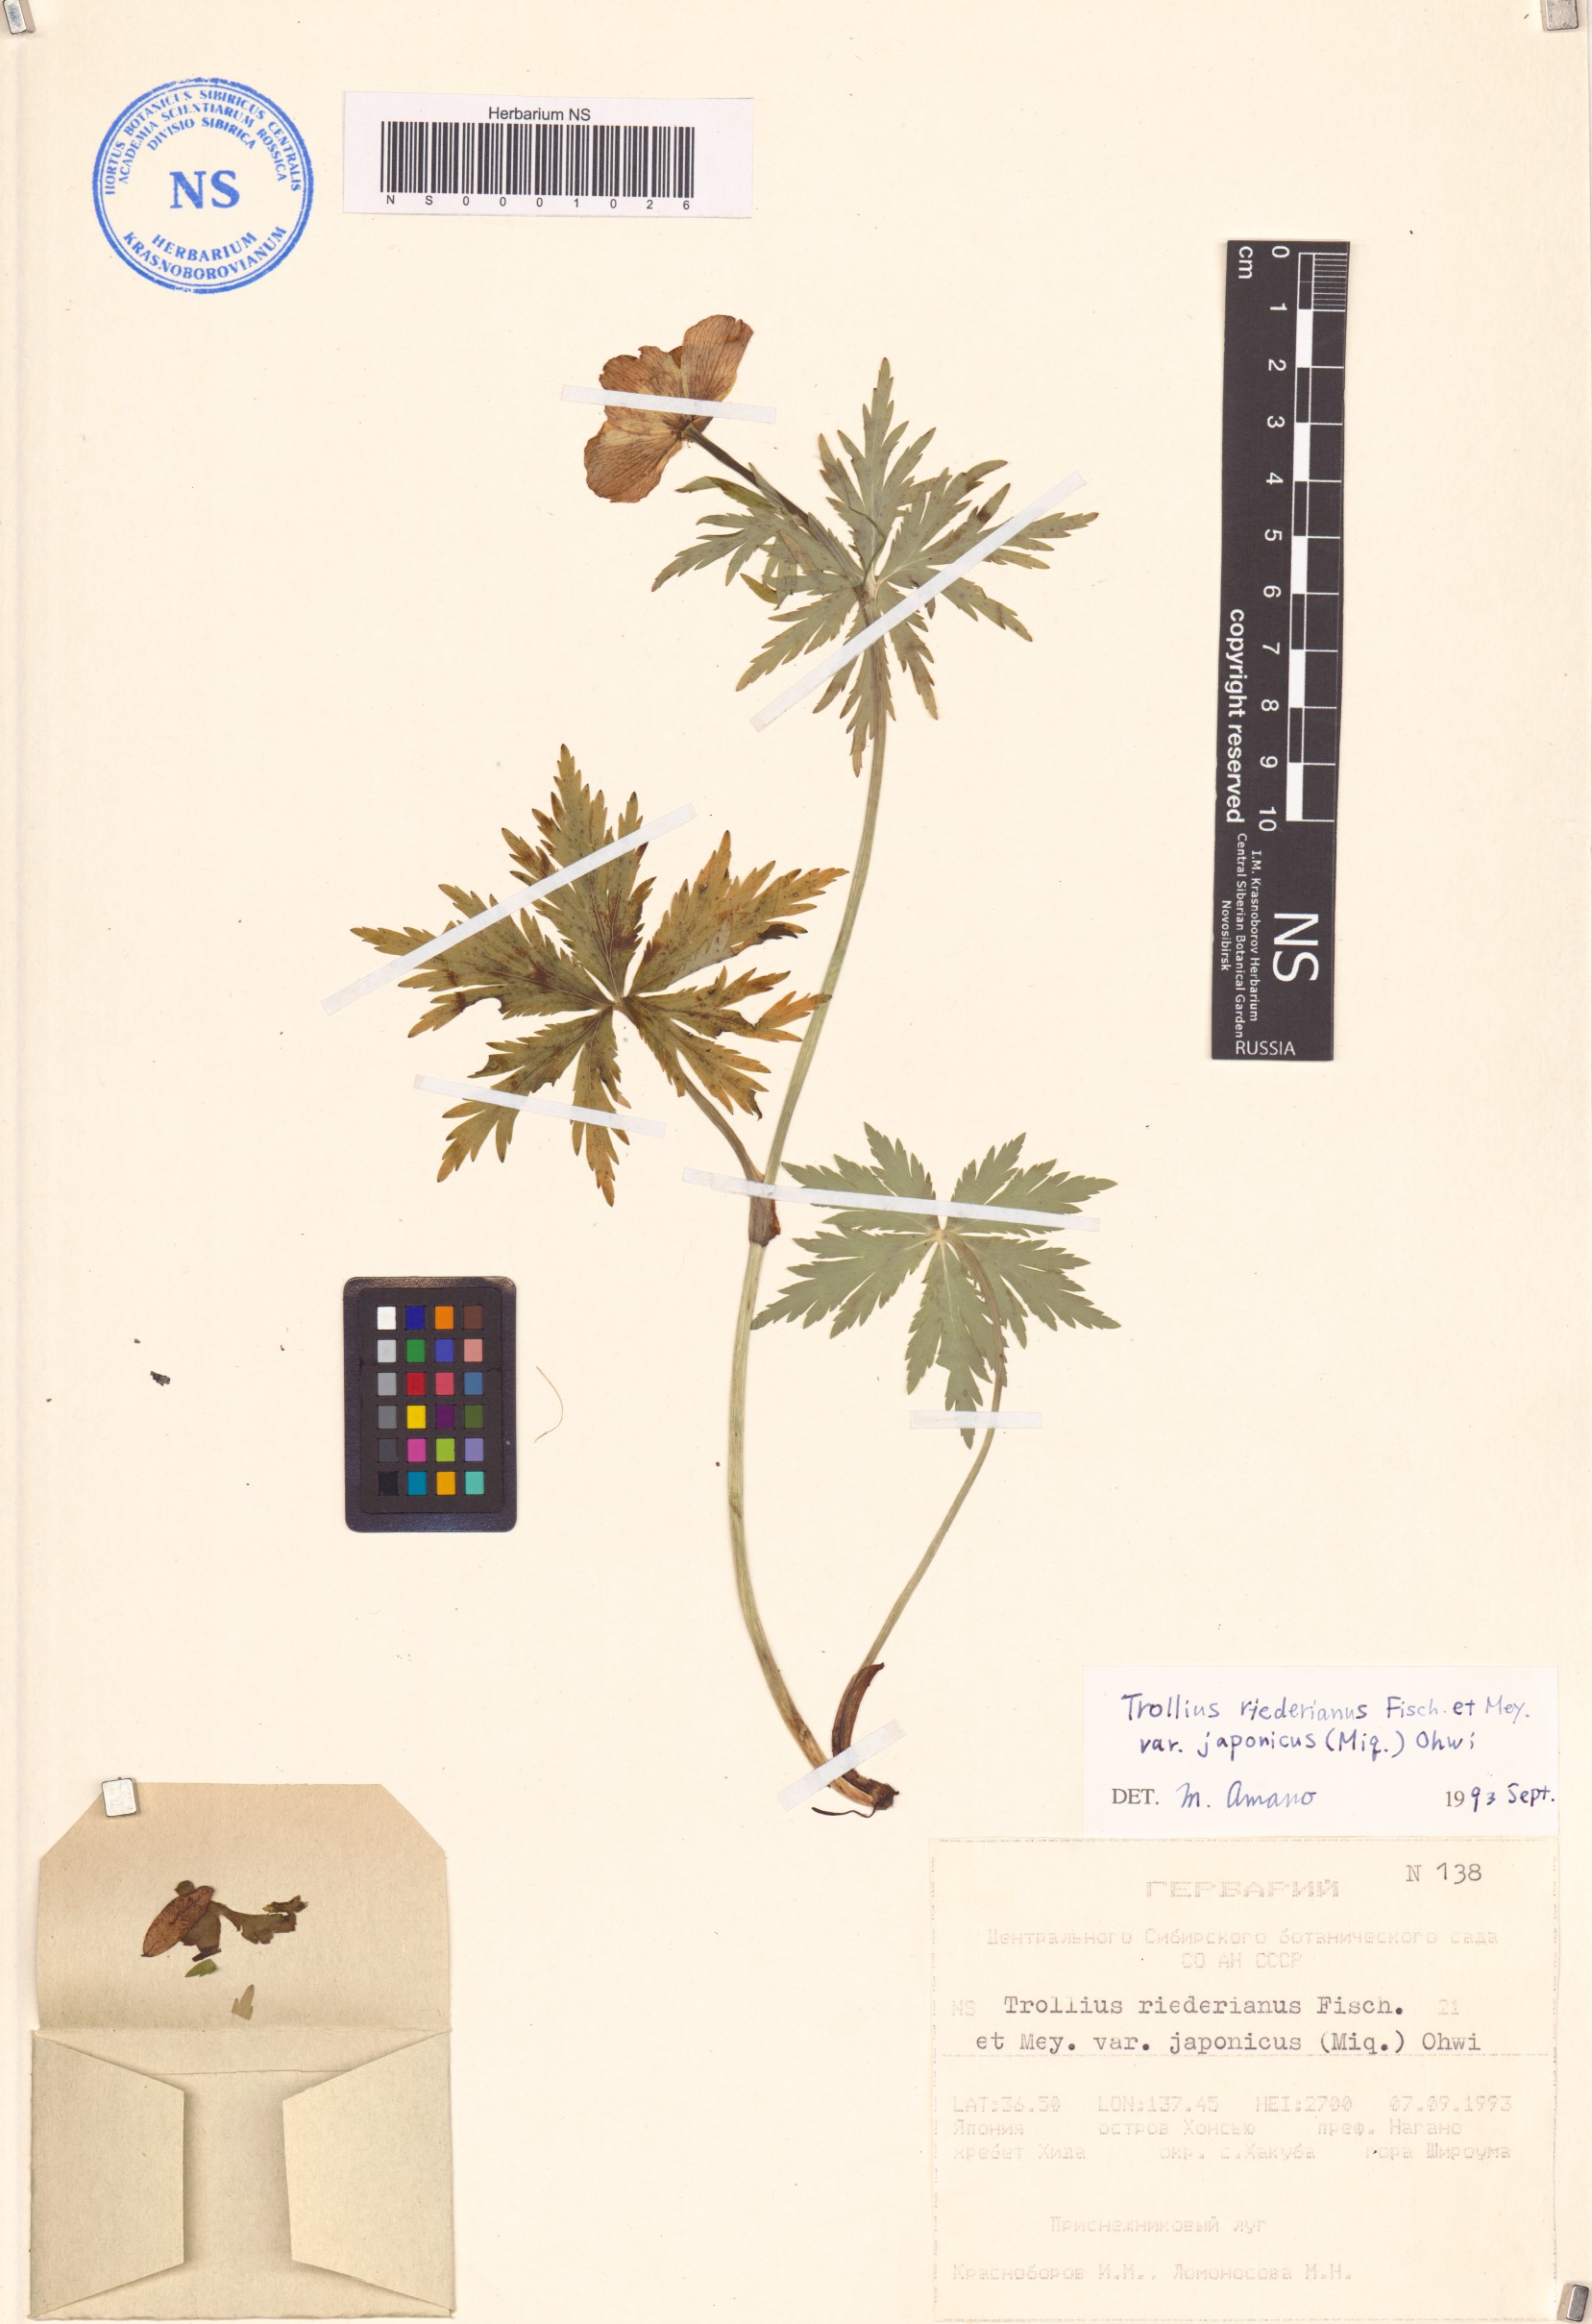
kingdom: Plantae
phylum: Tracheophyta
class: Magnoliopsida
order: Ranunculales
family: Ranunculaceae
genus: Trollius
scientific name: Trollius japonicus
